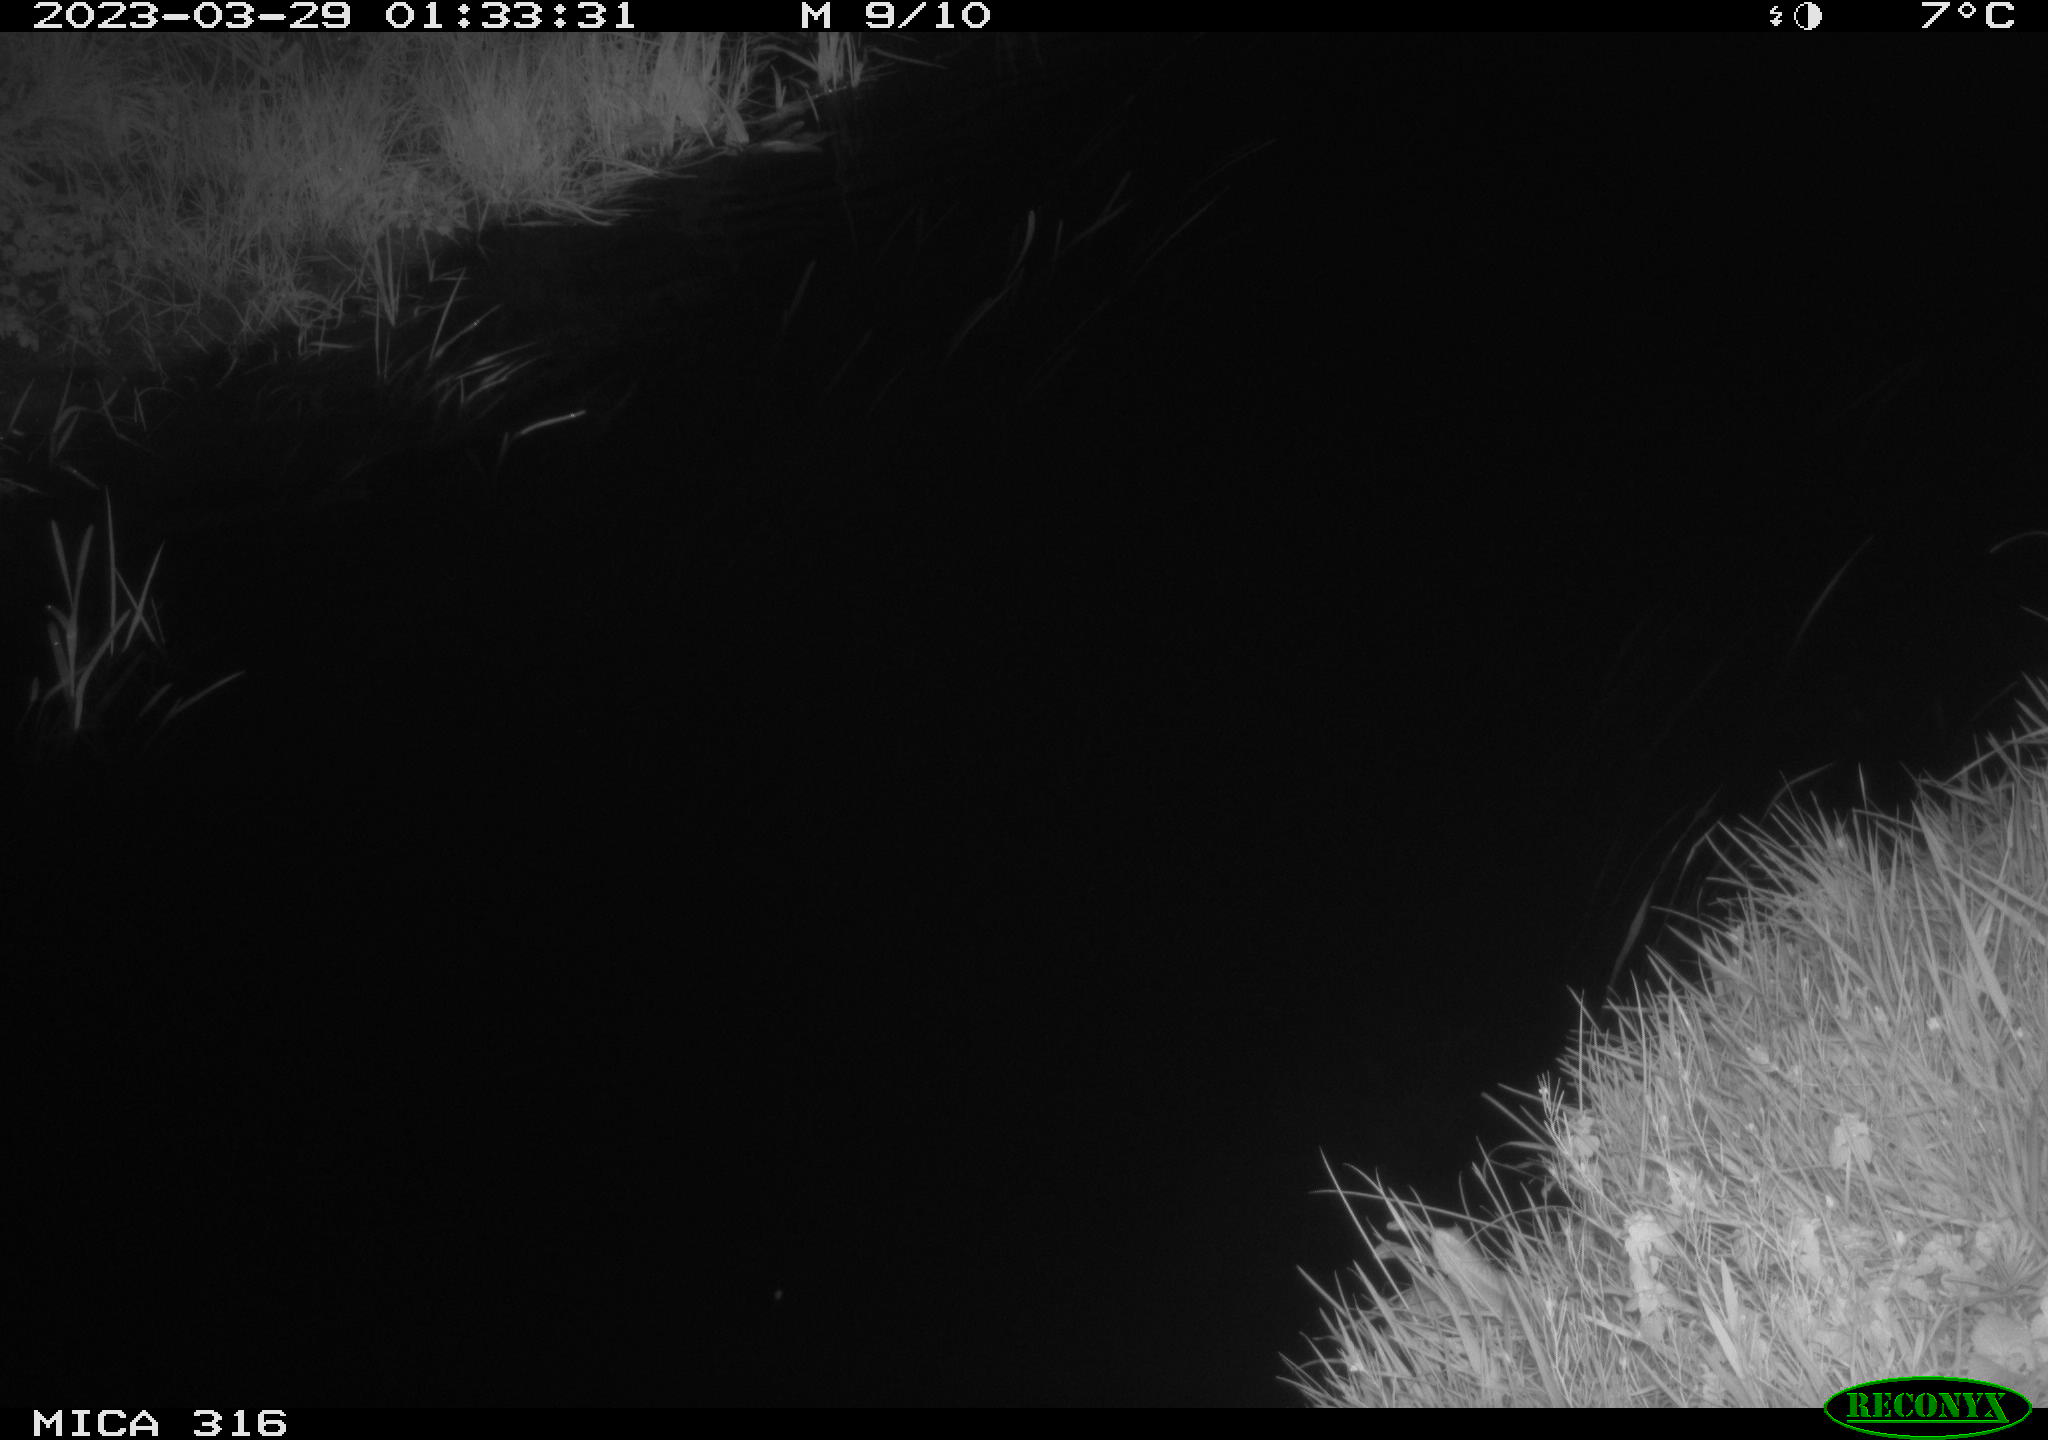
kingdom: Animalia
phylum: Chordata
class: Aves
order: Anseriformes
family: Anatidae
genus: Anas
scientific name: Anas
